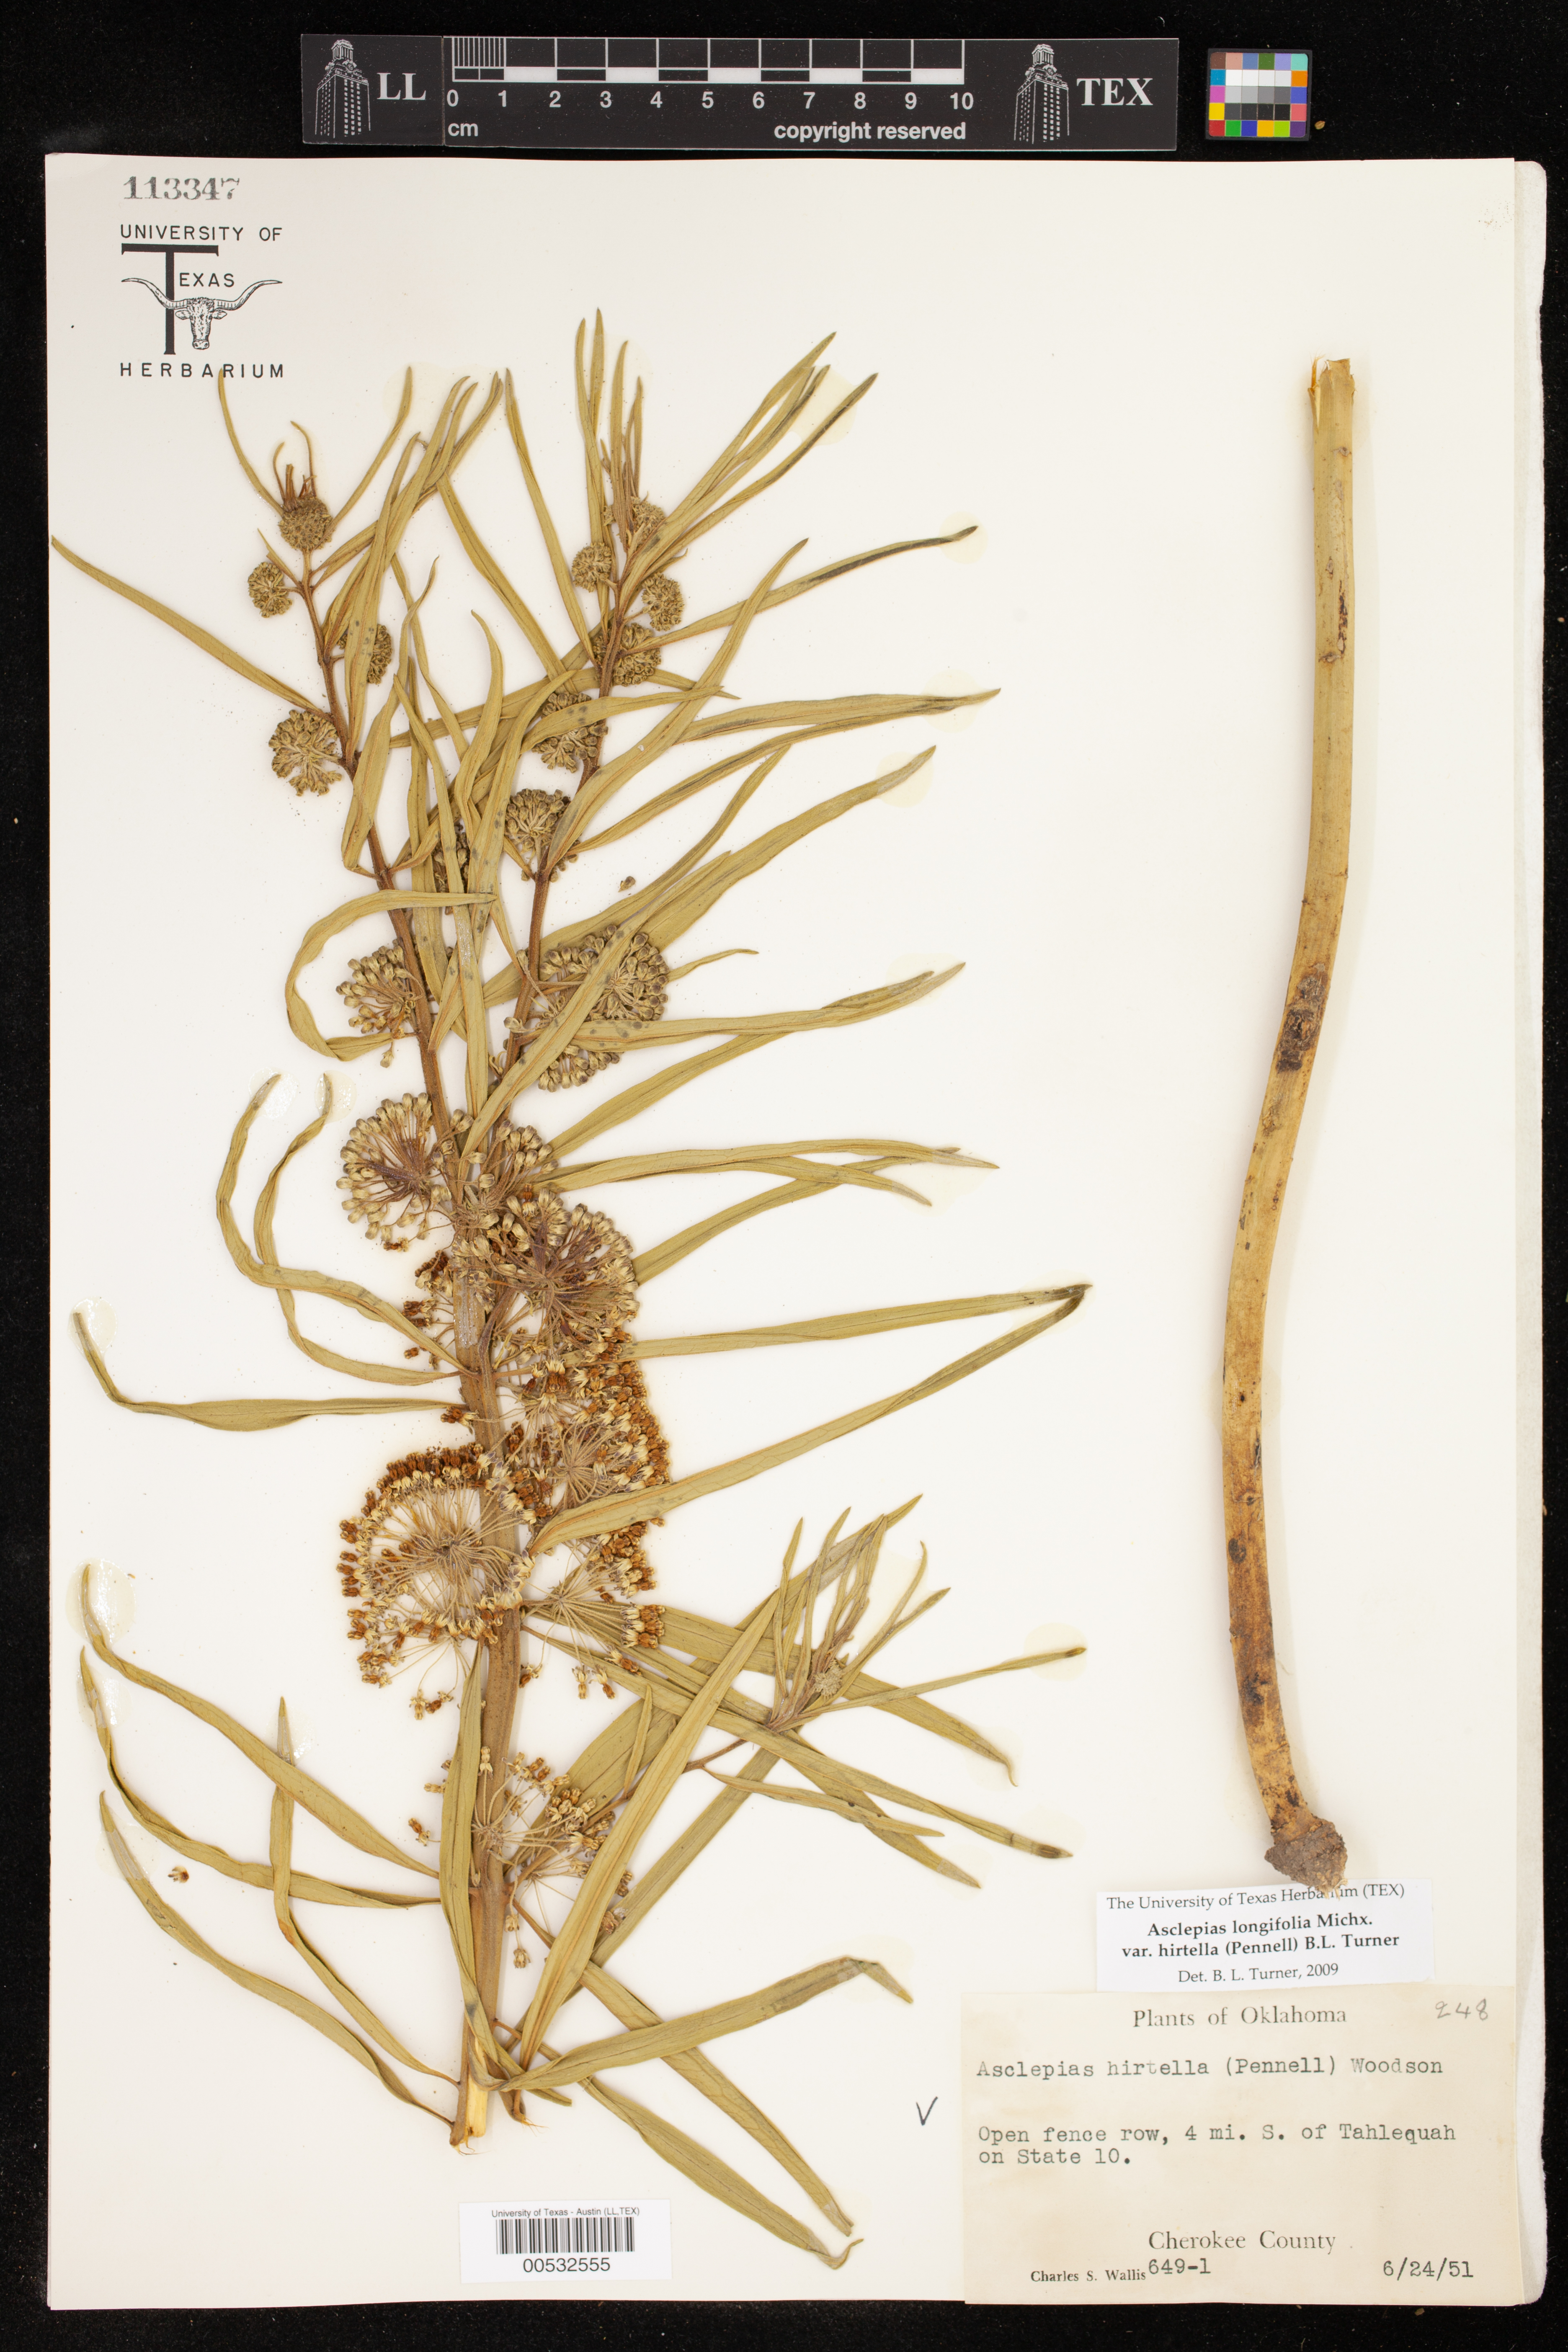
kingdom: Plantae
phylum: Tracheophyta
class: Magnoliopsida
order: Gentianales
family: Apocynaceae
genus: Asclepias
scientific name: Asclepias hirtella
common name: Prairie milkweed
